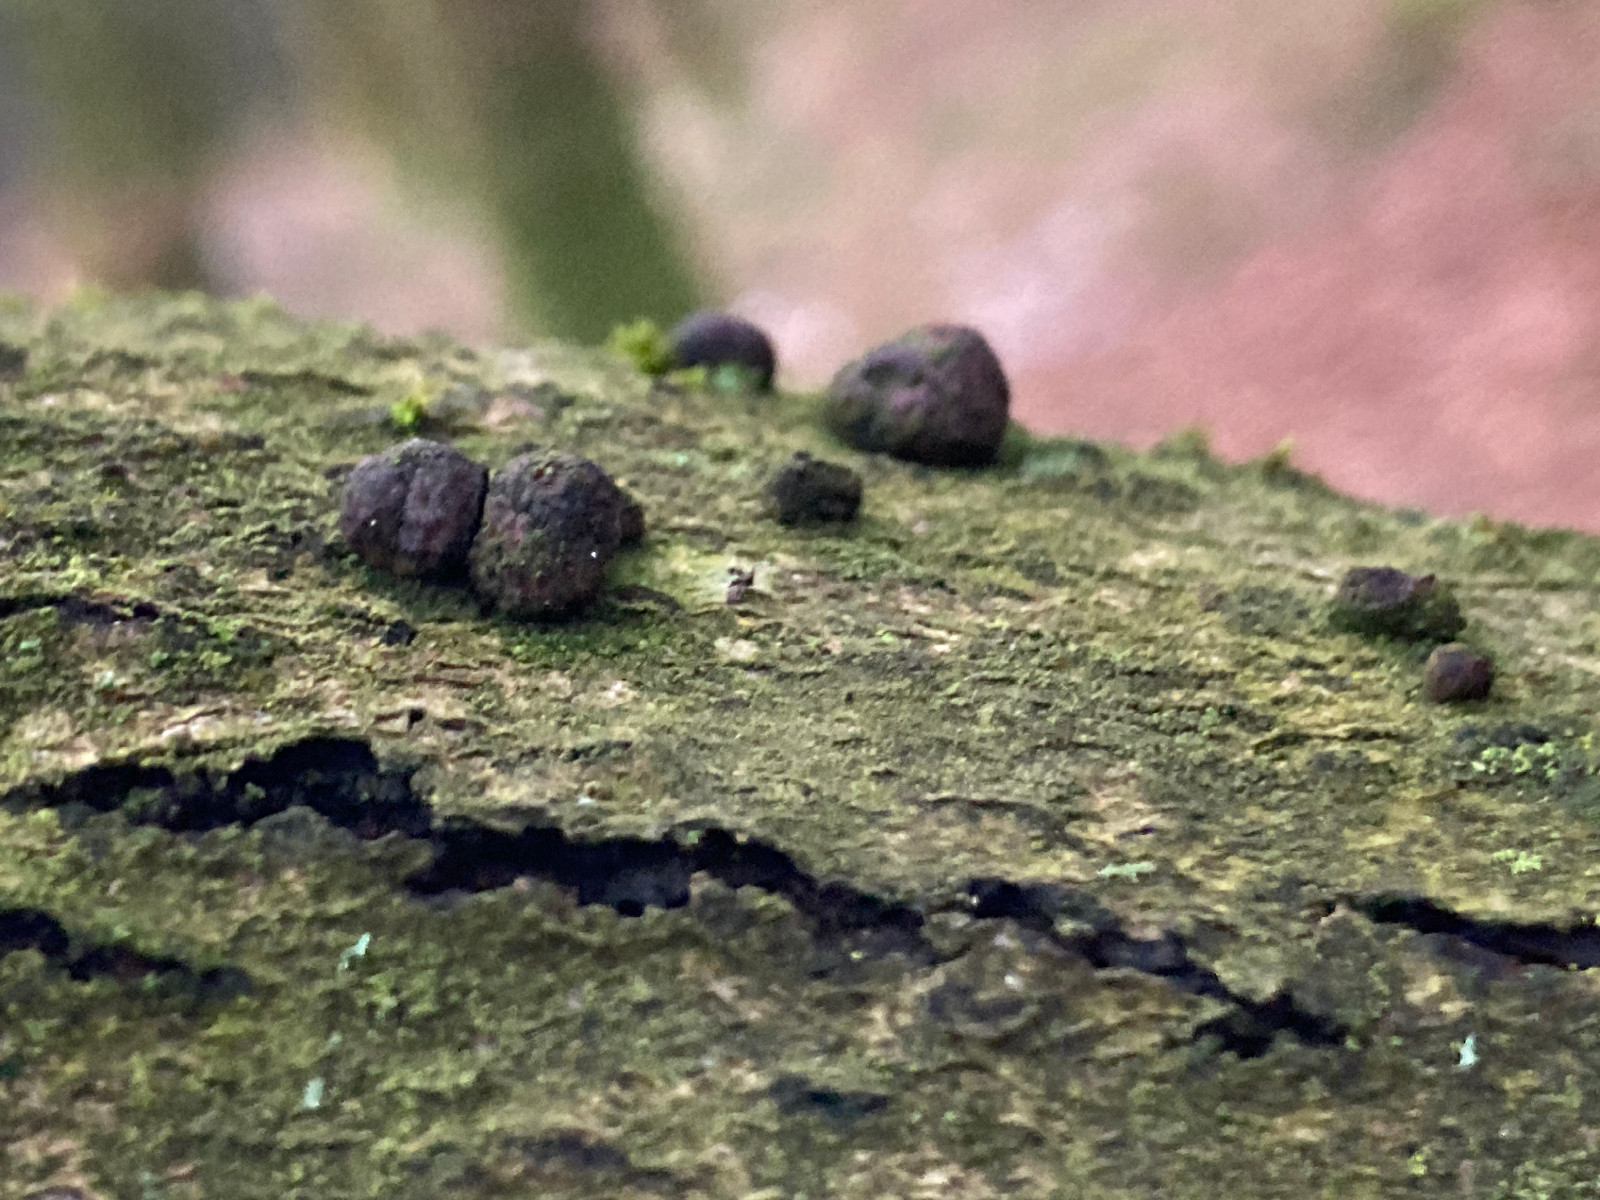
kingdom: Fungi
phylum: Ascomycota
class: Sordariomycetes
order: Xylariales
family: Hypoxylaceae
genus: Hypoxylon
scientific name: Hypoxylon fragiforme
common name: kuljordbær
